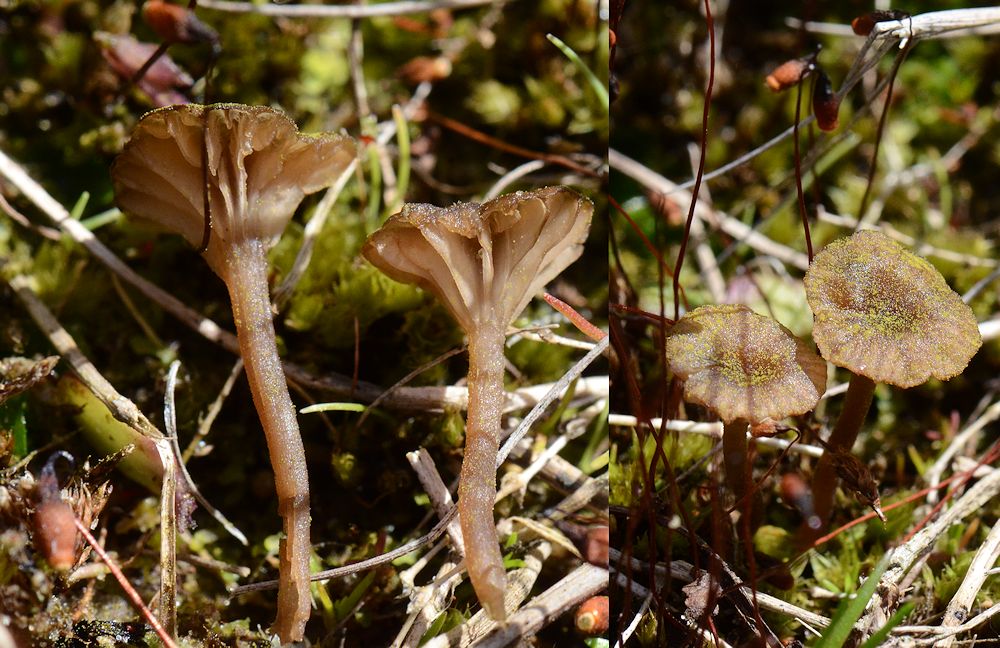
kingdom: Fungi
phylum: Basidiomycota
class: Agaricomycetes
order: Agaricales
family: Hygrophoraceae
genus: Arrhenia
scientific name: Arrhenia rustica
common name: dyster fontænehat
